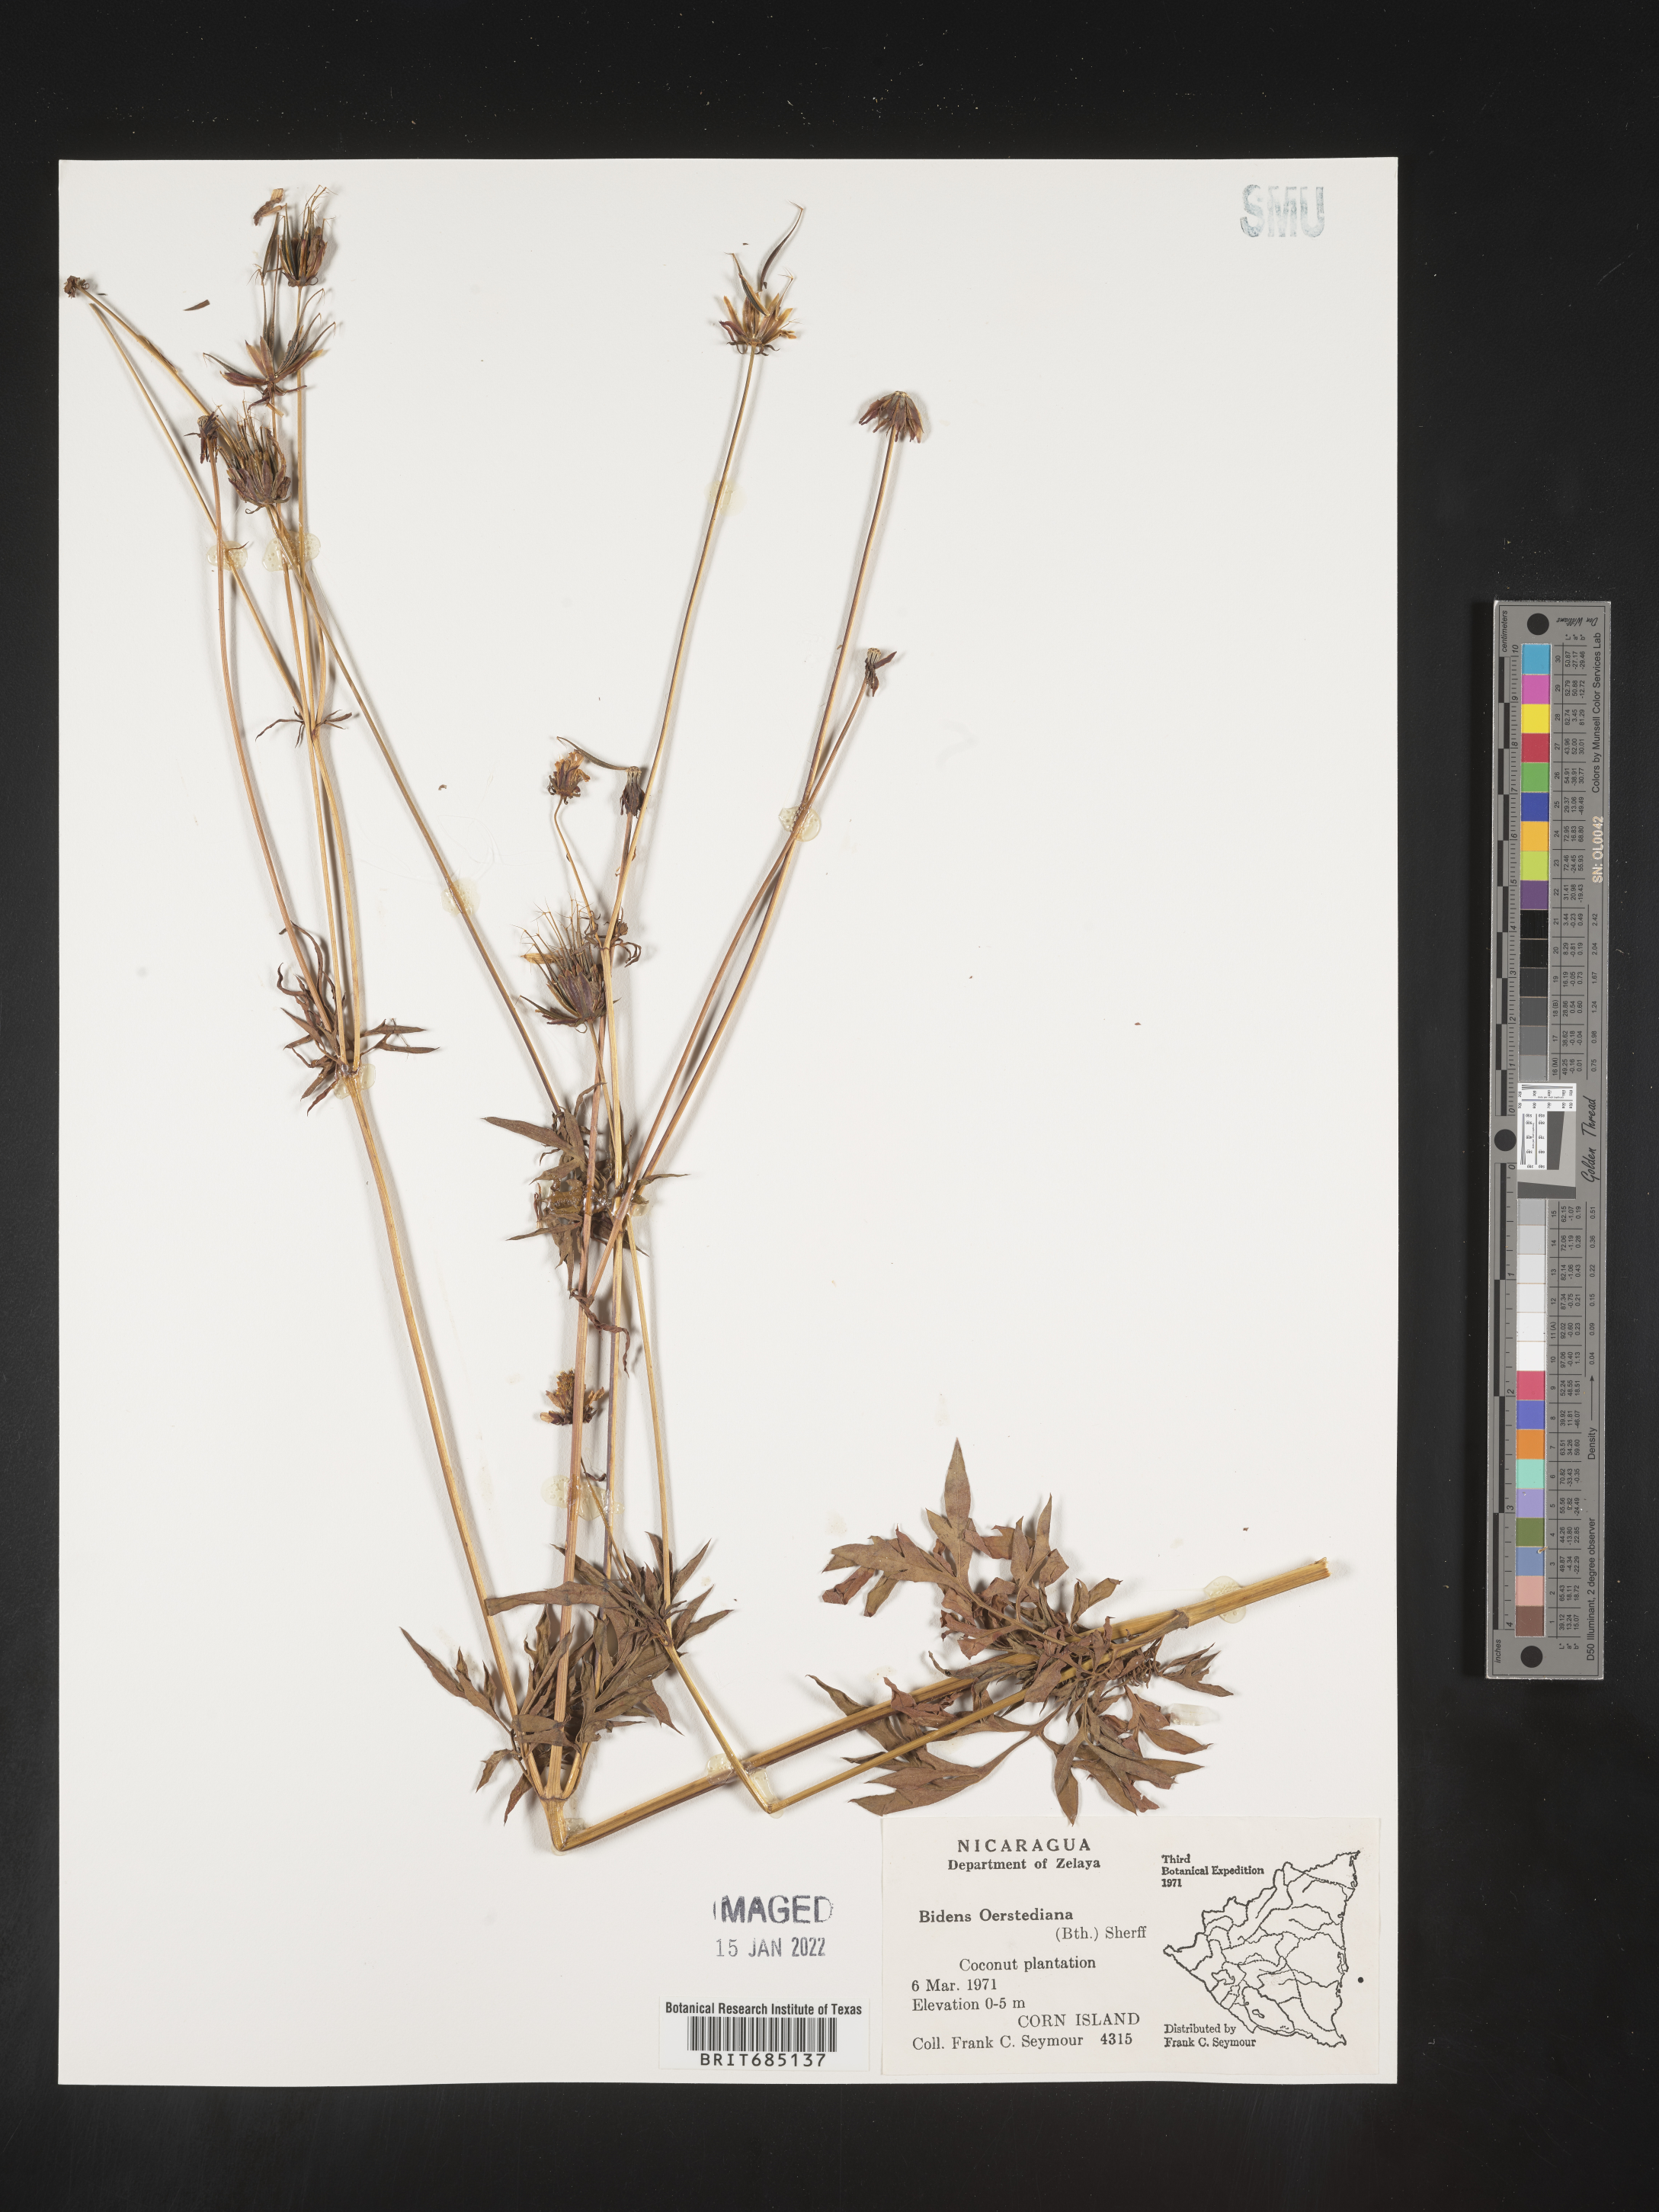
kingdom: Plantae
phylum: Tracheophyta
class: Magnoliopsida
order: Asterales
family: Asteraceae
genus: Bidens
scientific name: Bidens
